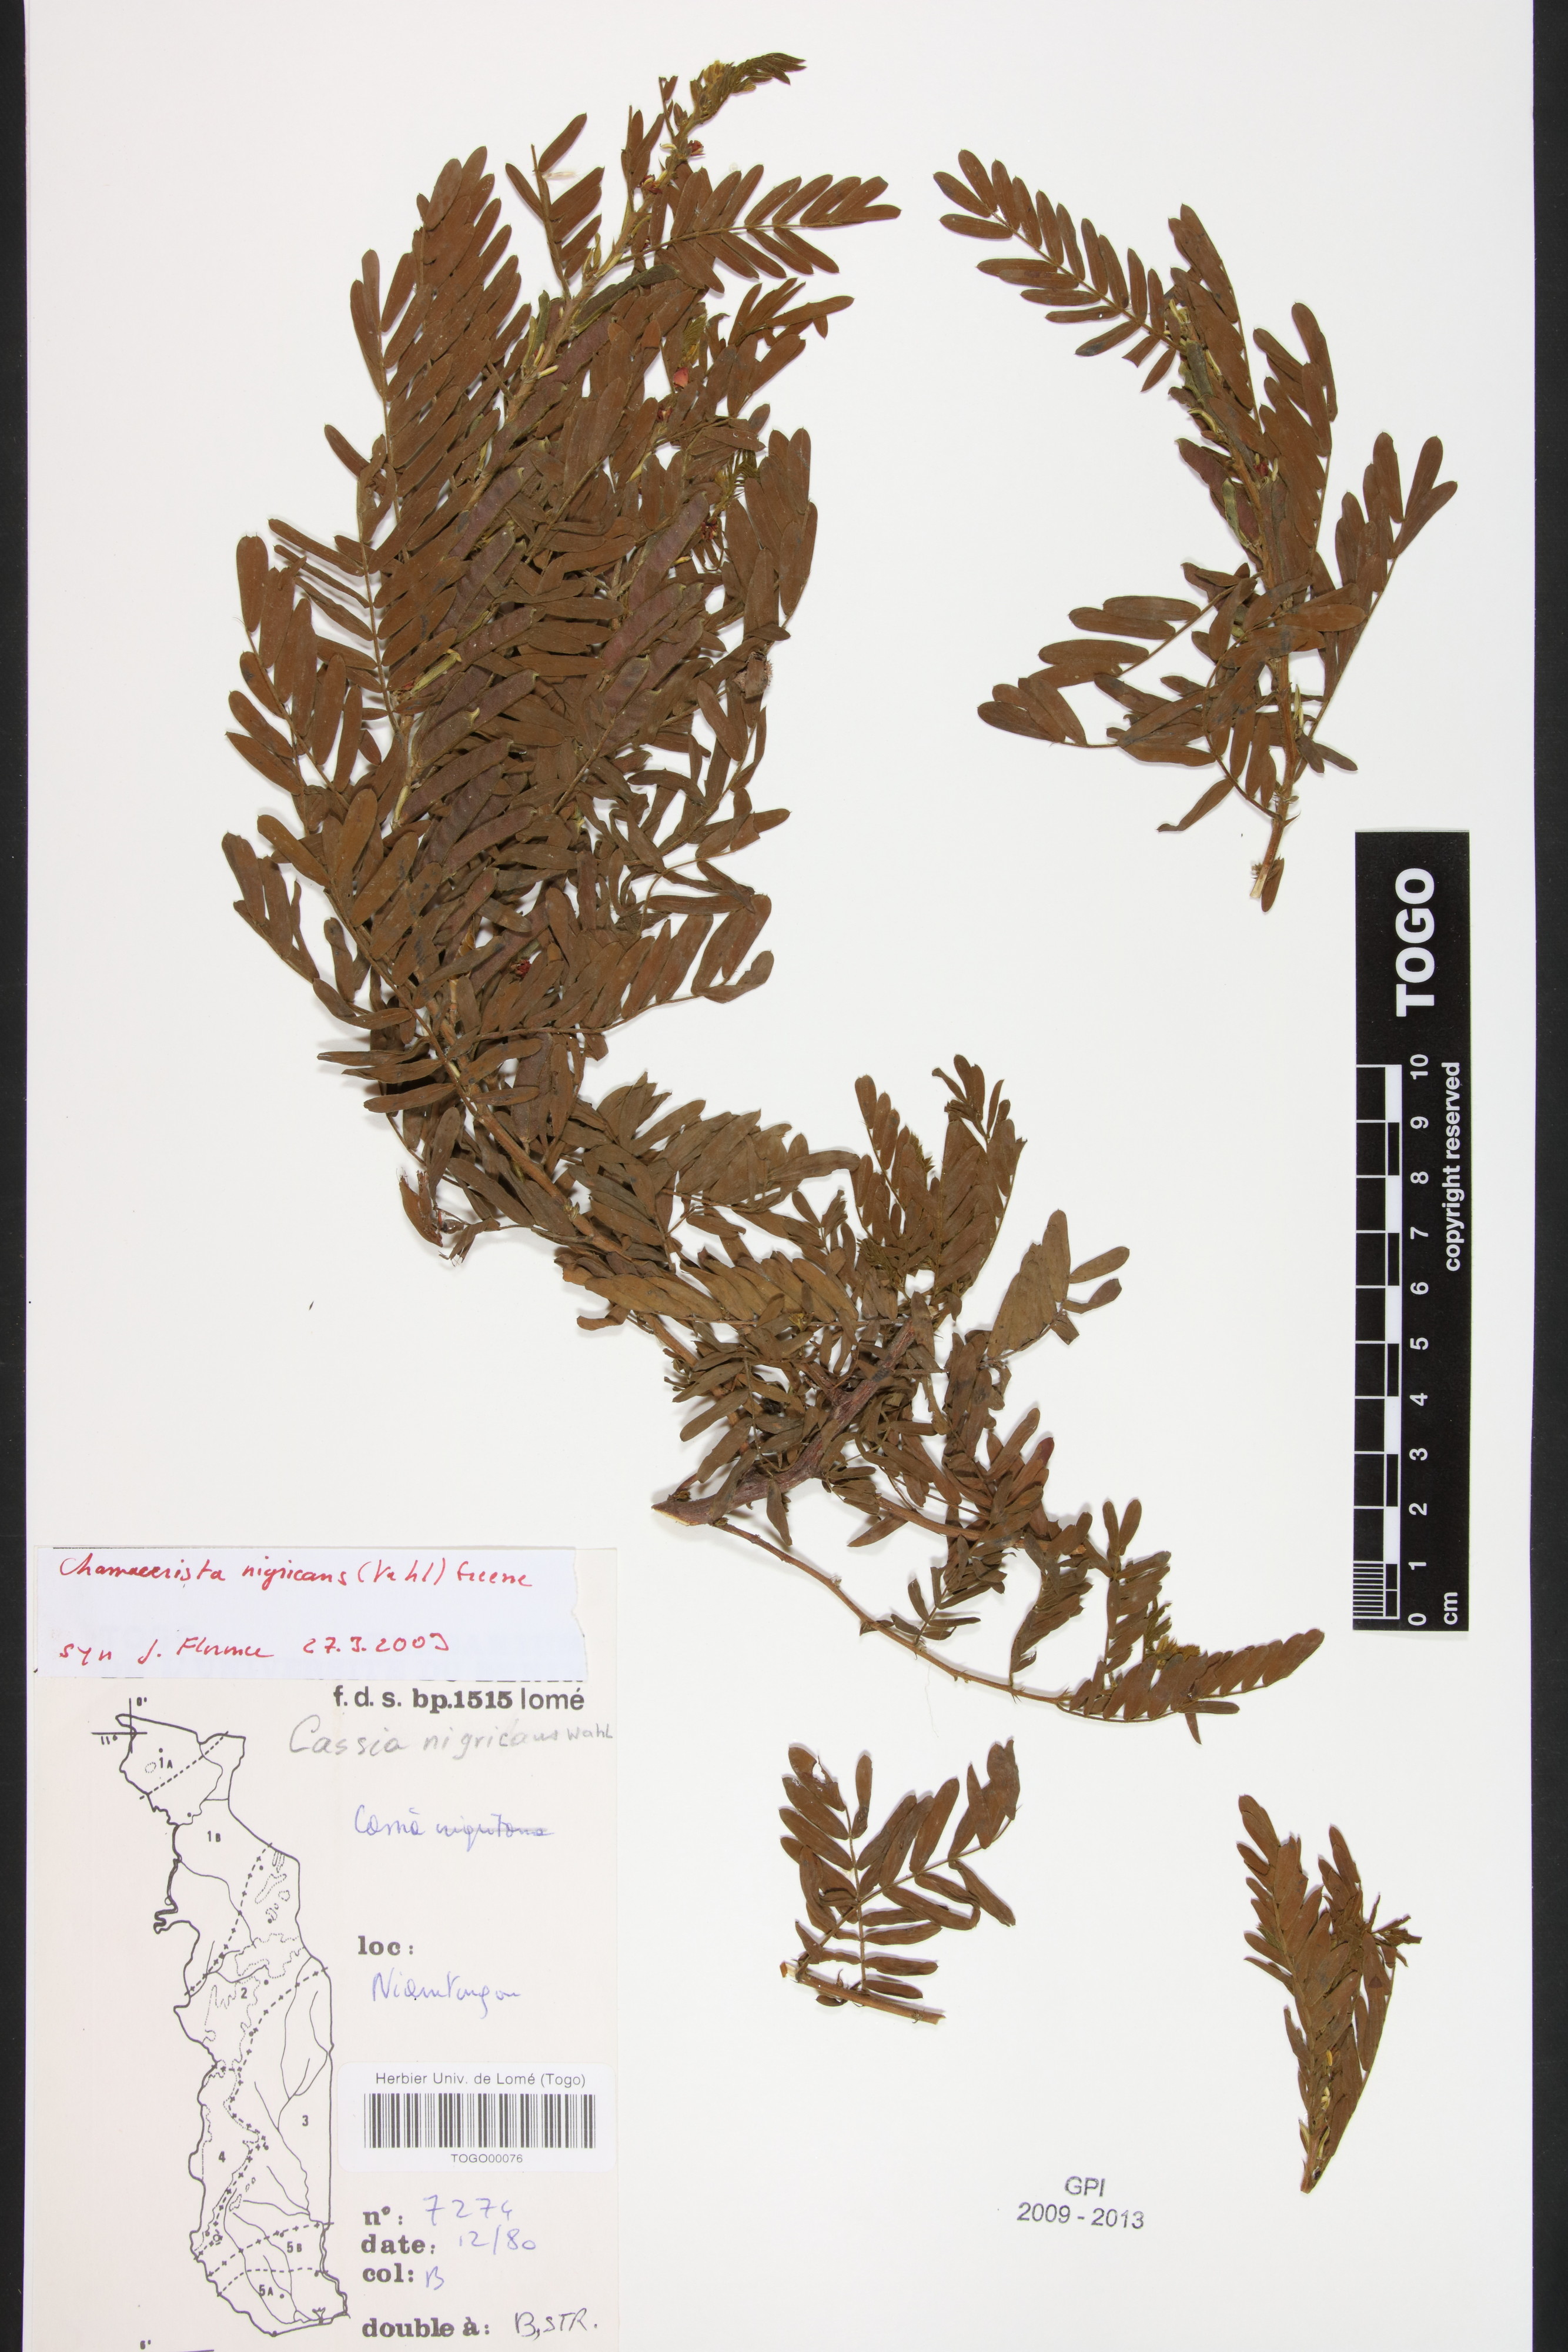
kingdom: Plantae
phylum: Tracheophyta
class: Magnoliopsida
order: Fabales
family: Fabaceae
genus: Chamaecrista
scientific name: Chamaecrista nigricans
